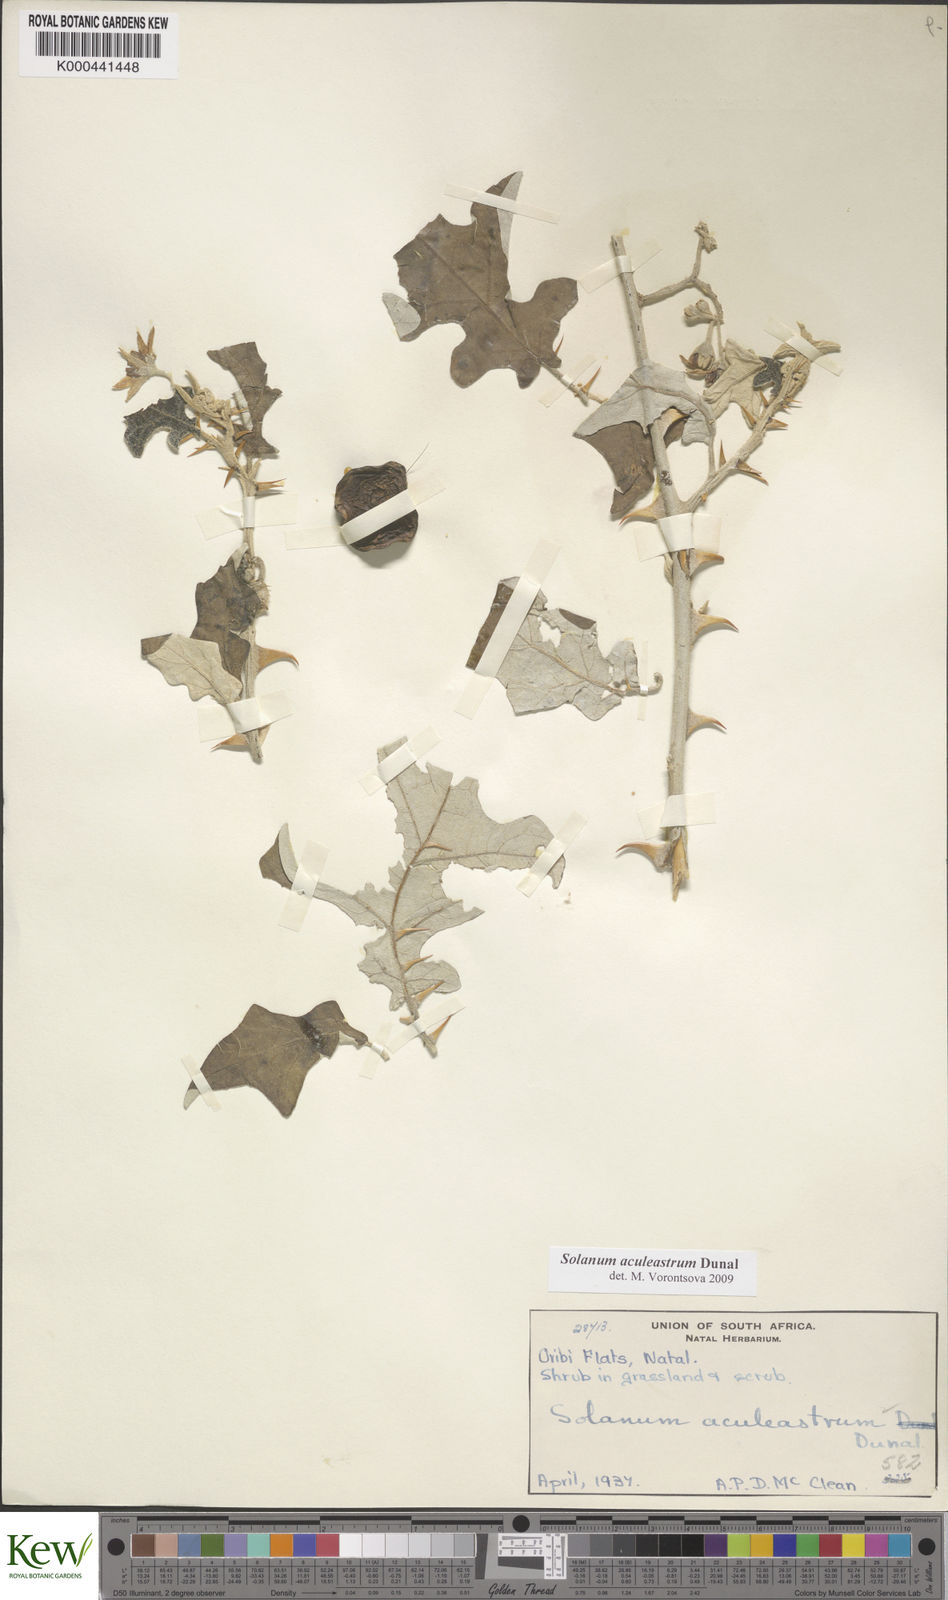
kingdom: Plantae
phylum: Tracheophyta
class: Magnoliopsida
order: Solanales
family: Solanaceae
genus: Solanum
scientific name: Solanum aculeastrum
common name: Goat bitter-apple
